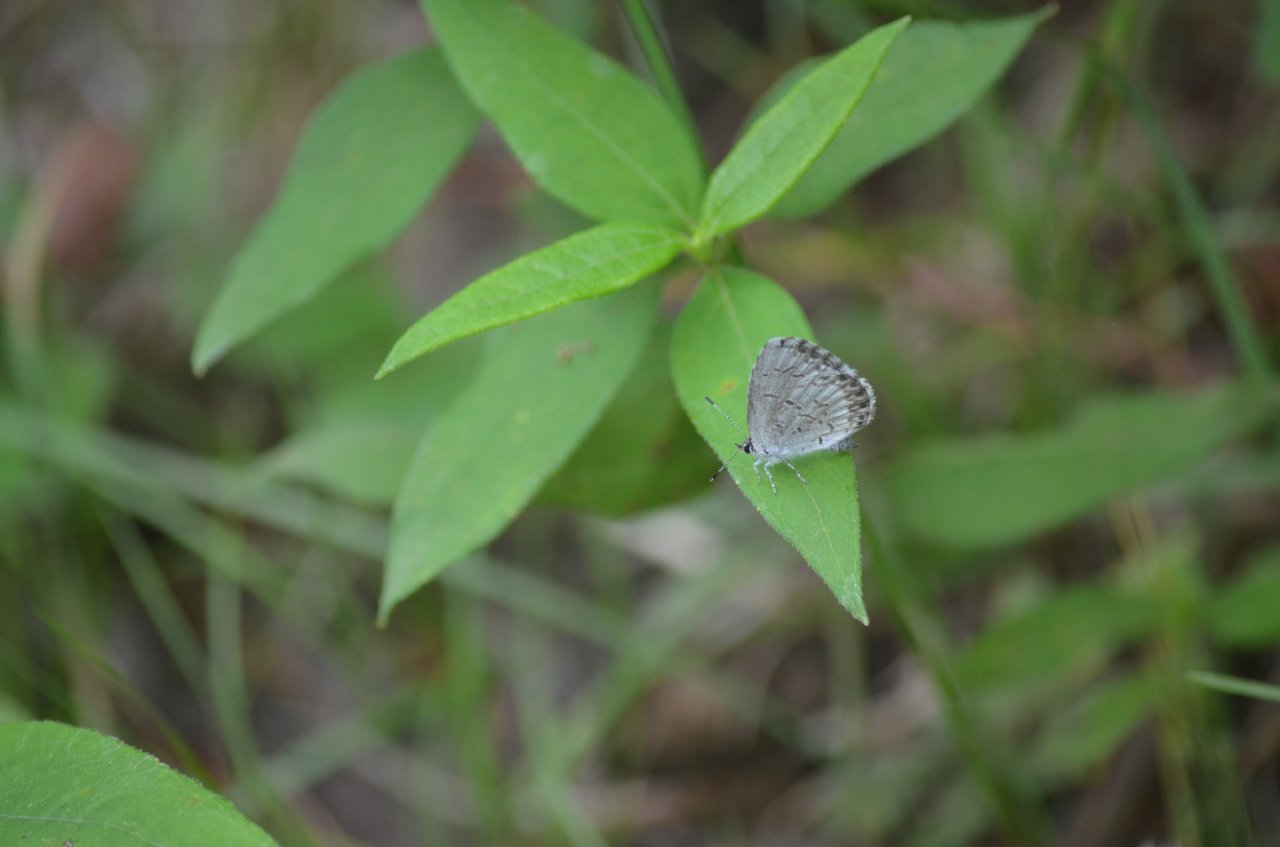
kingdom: Animalia
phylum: Arthropoda
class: Insecta
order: Lepidoptera
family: Lycaenidae
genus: Celastrina
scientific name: Celastrina lucia
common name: Northern Spring Azure
